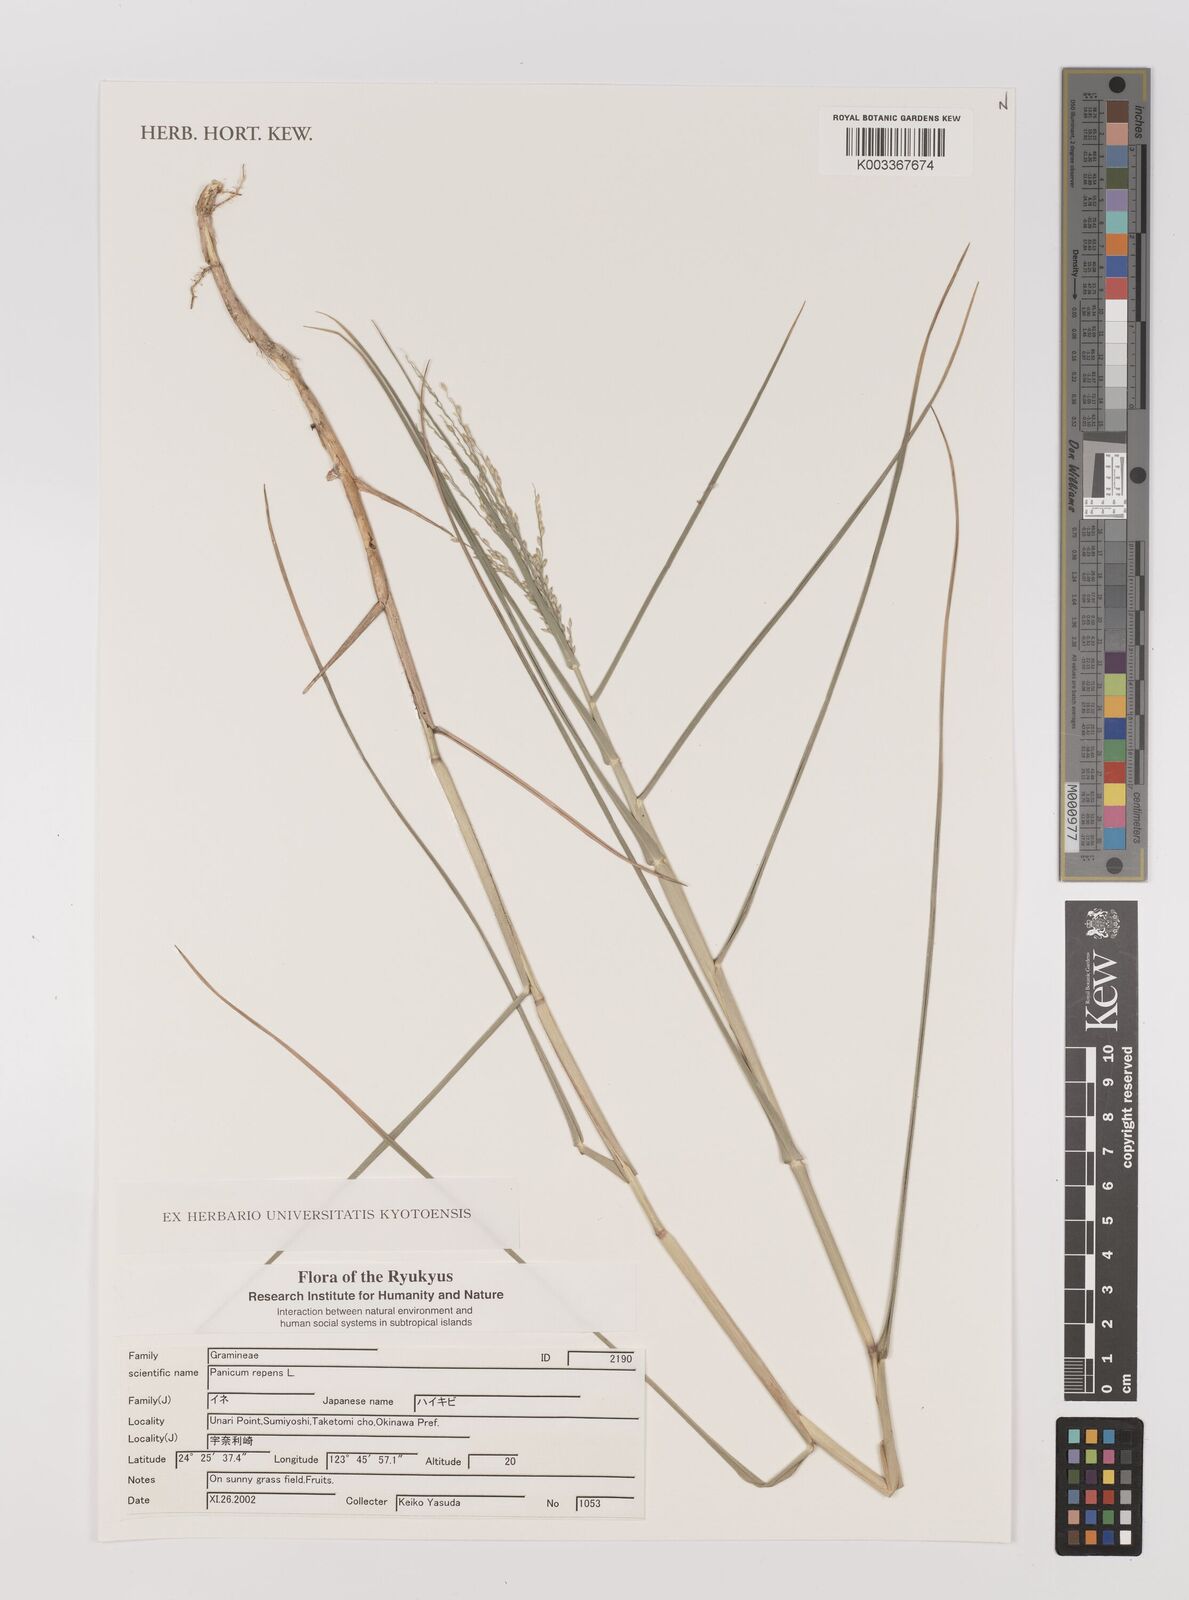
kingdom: Plantae
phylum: Tracheophyta
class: Liliopsida
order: Poales
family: Poaceae
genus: Panicum
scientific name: Panicum repens
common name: Torpedo grass
